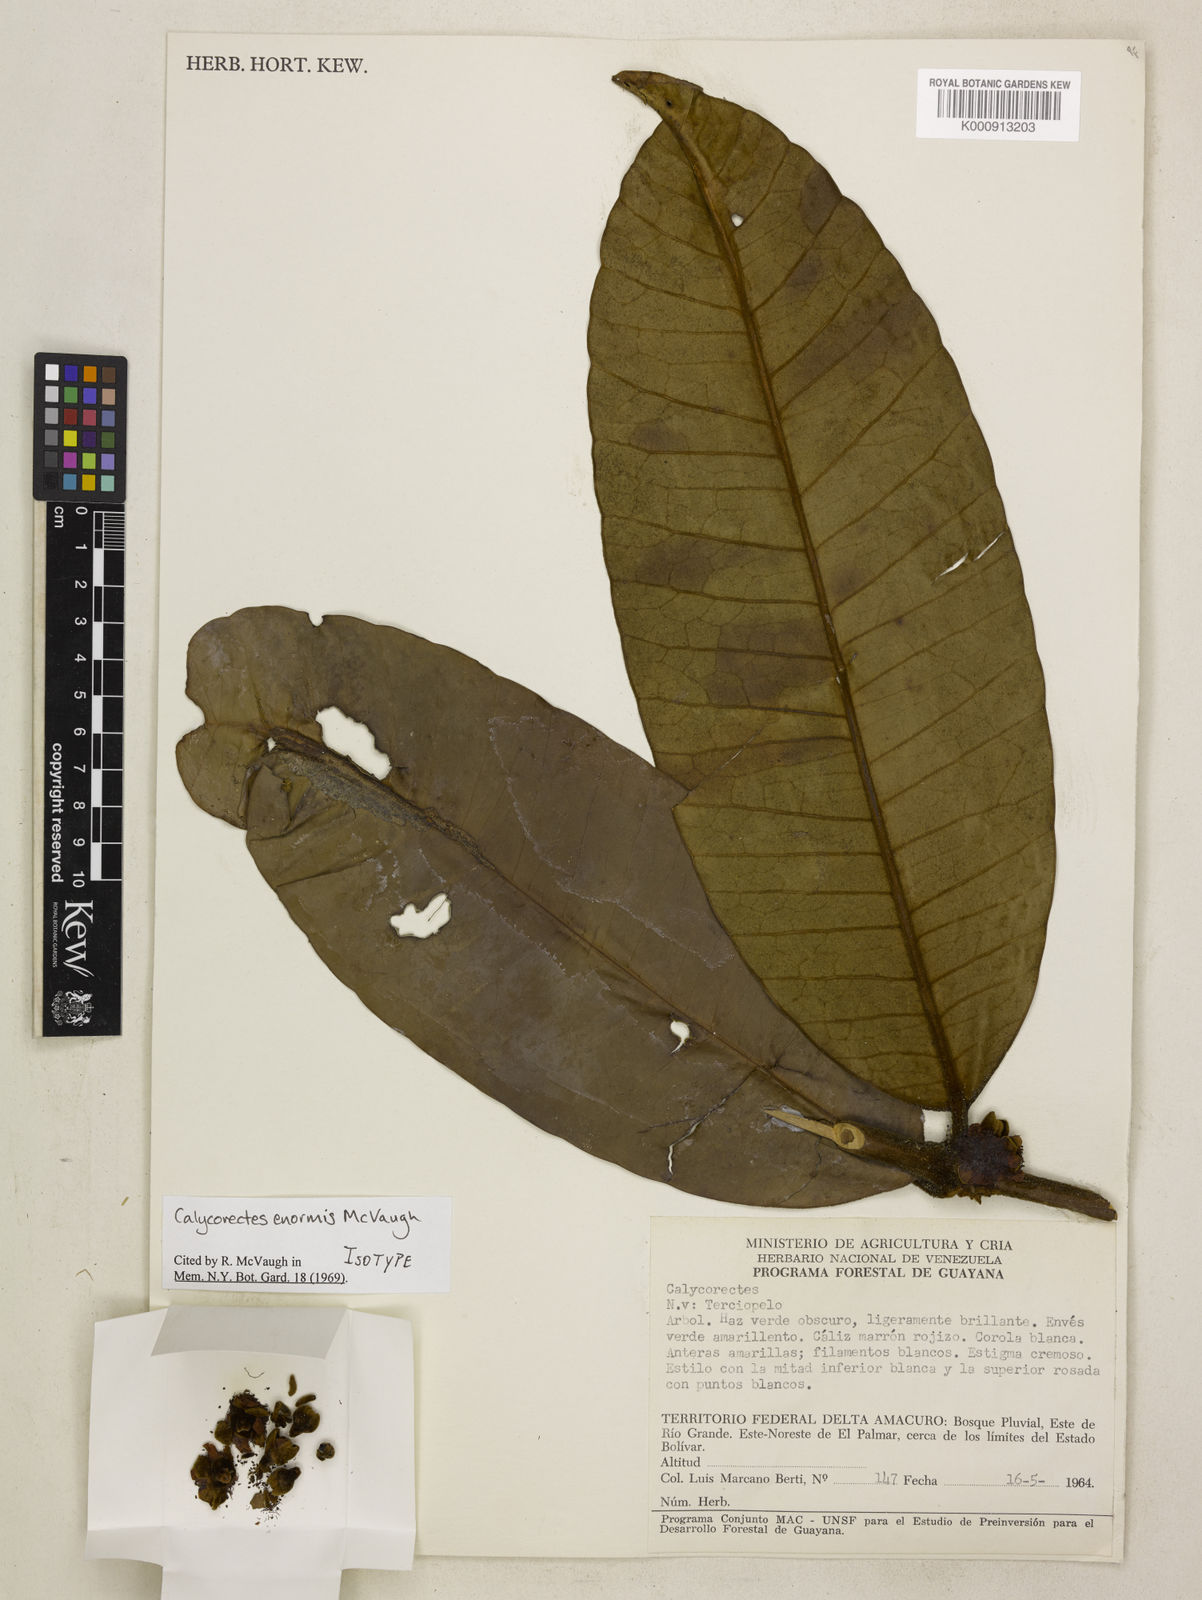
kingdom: Plantae
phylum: Tracheophyta
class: Magnoliopsida
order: Myrtales
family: Myrtaceae
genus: Calycorectes
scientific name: Calycorectes enormis
